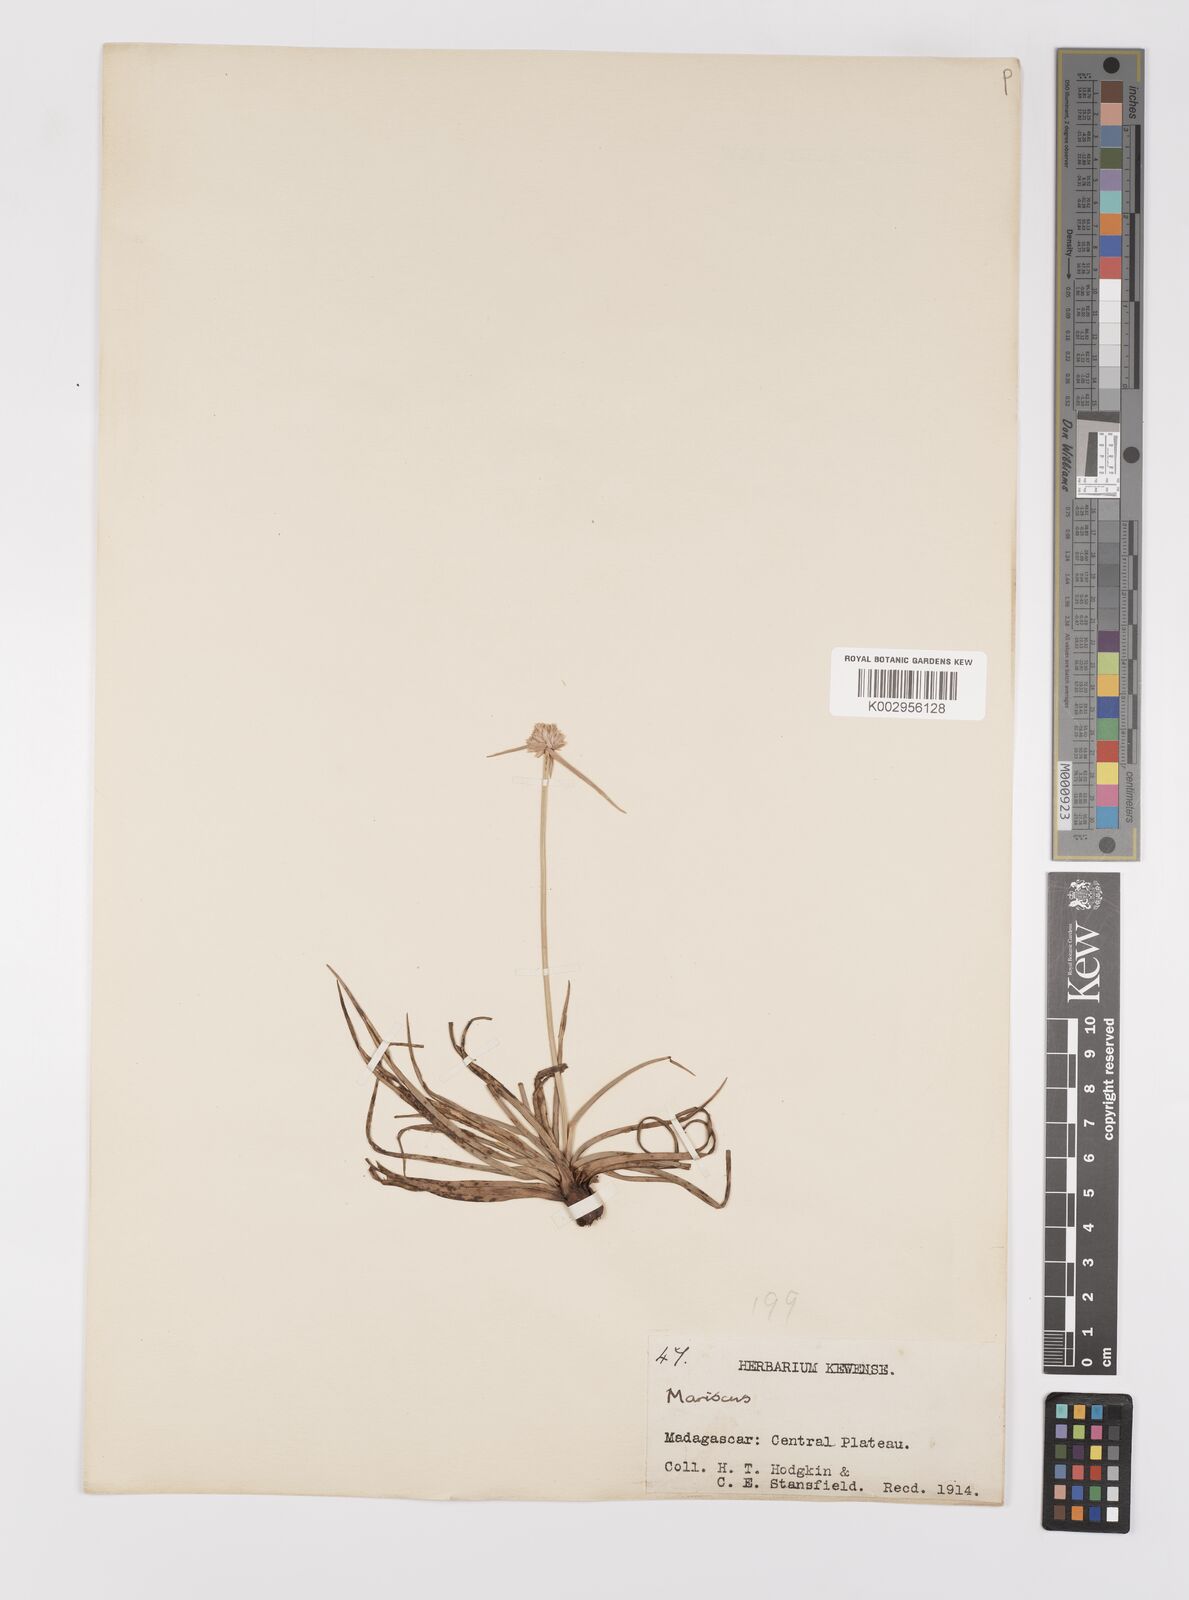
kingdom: Plantae
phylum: Tracheophyta
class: Liliopsida
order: Poales
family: Cyperaceae
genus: Cyperus
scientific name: Cyperus
